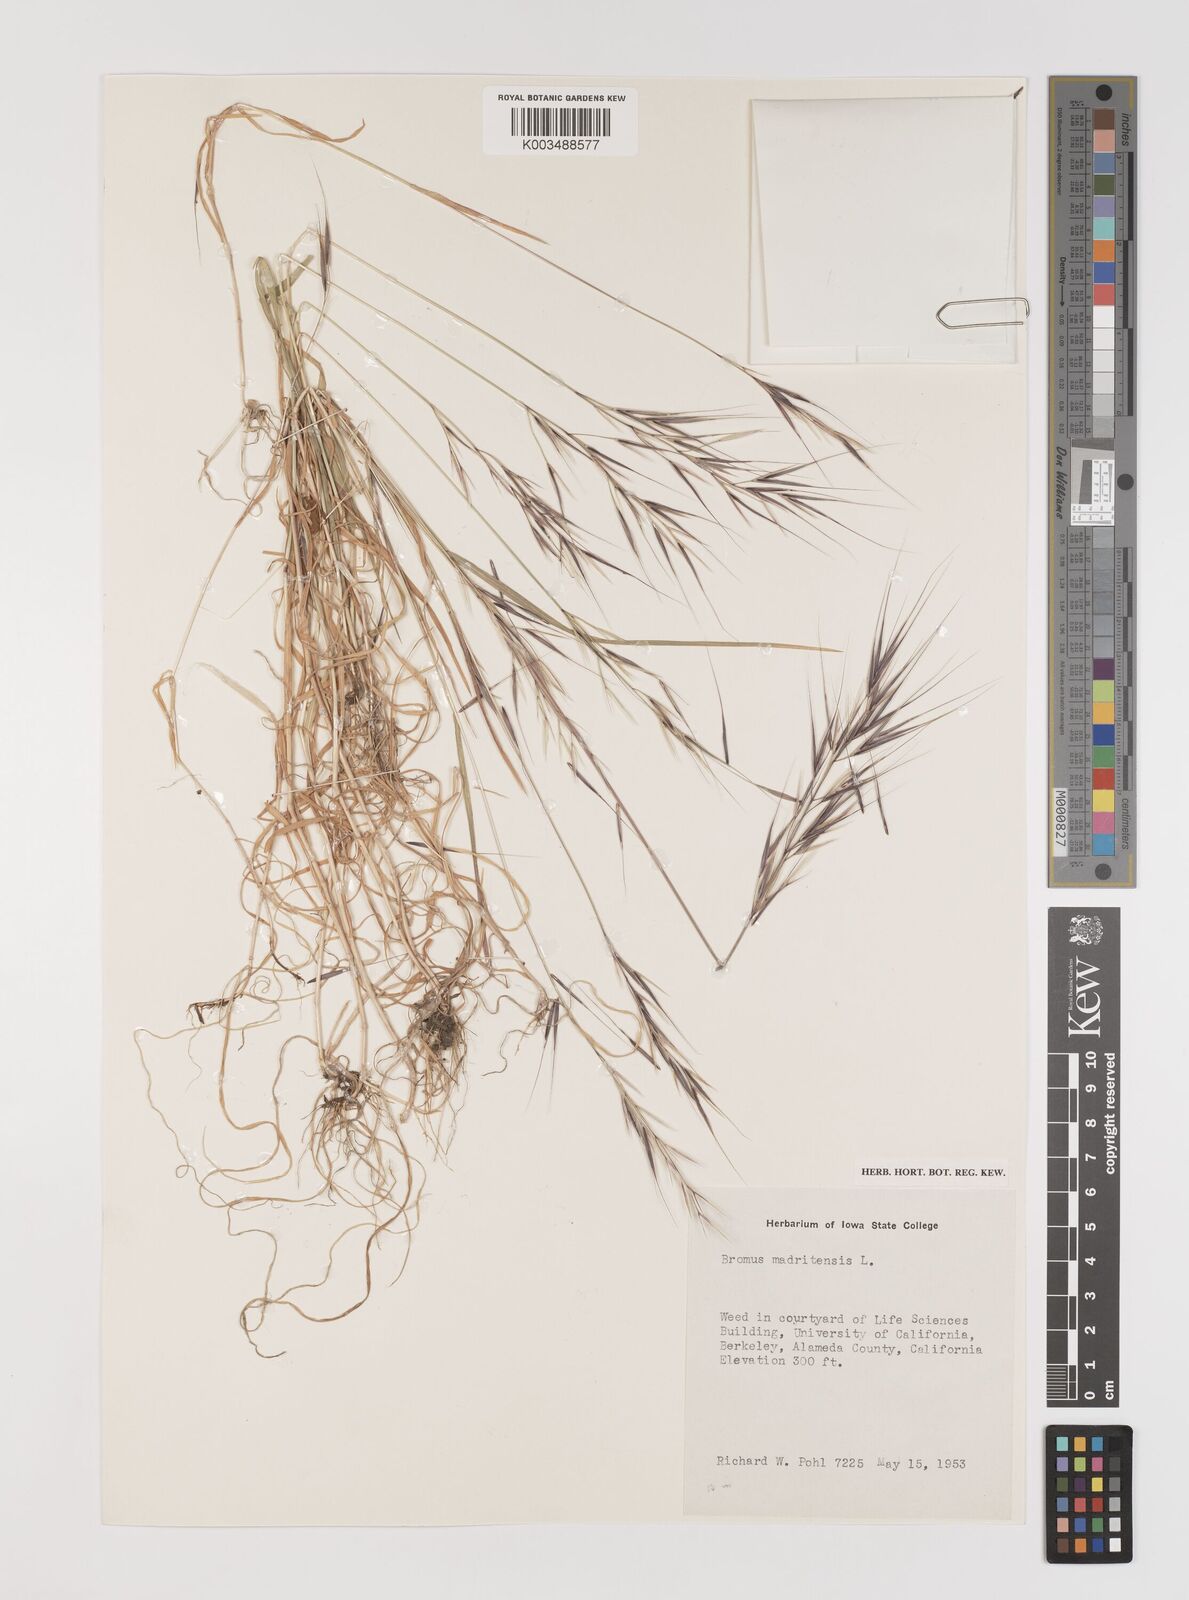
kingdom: Plantae
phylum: Tracheophyta
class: Liliopsida
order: Poales
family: Poaceae
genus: Bromus
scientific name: Bromus madritensis
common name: Compact brome
